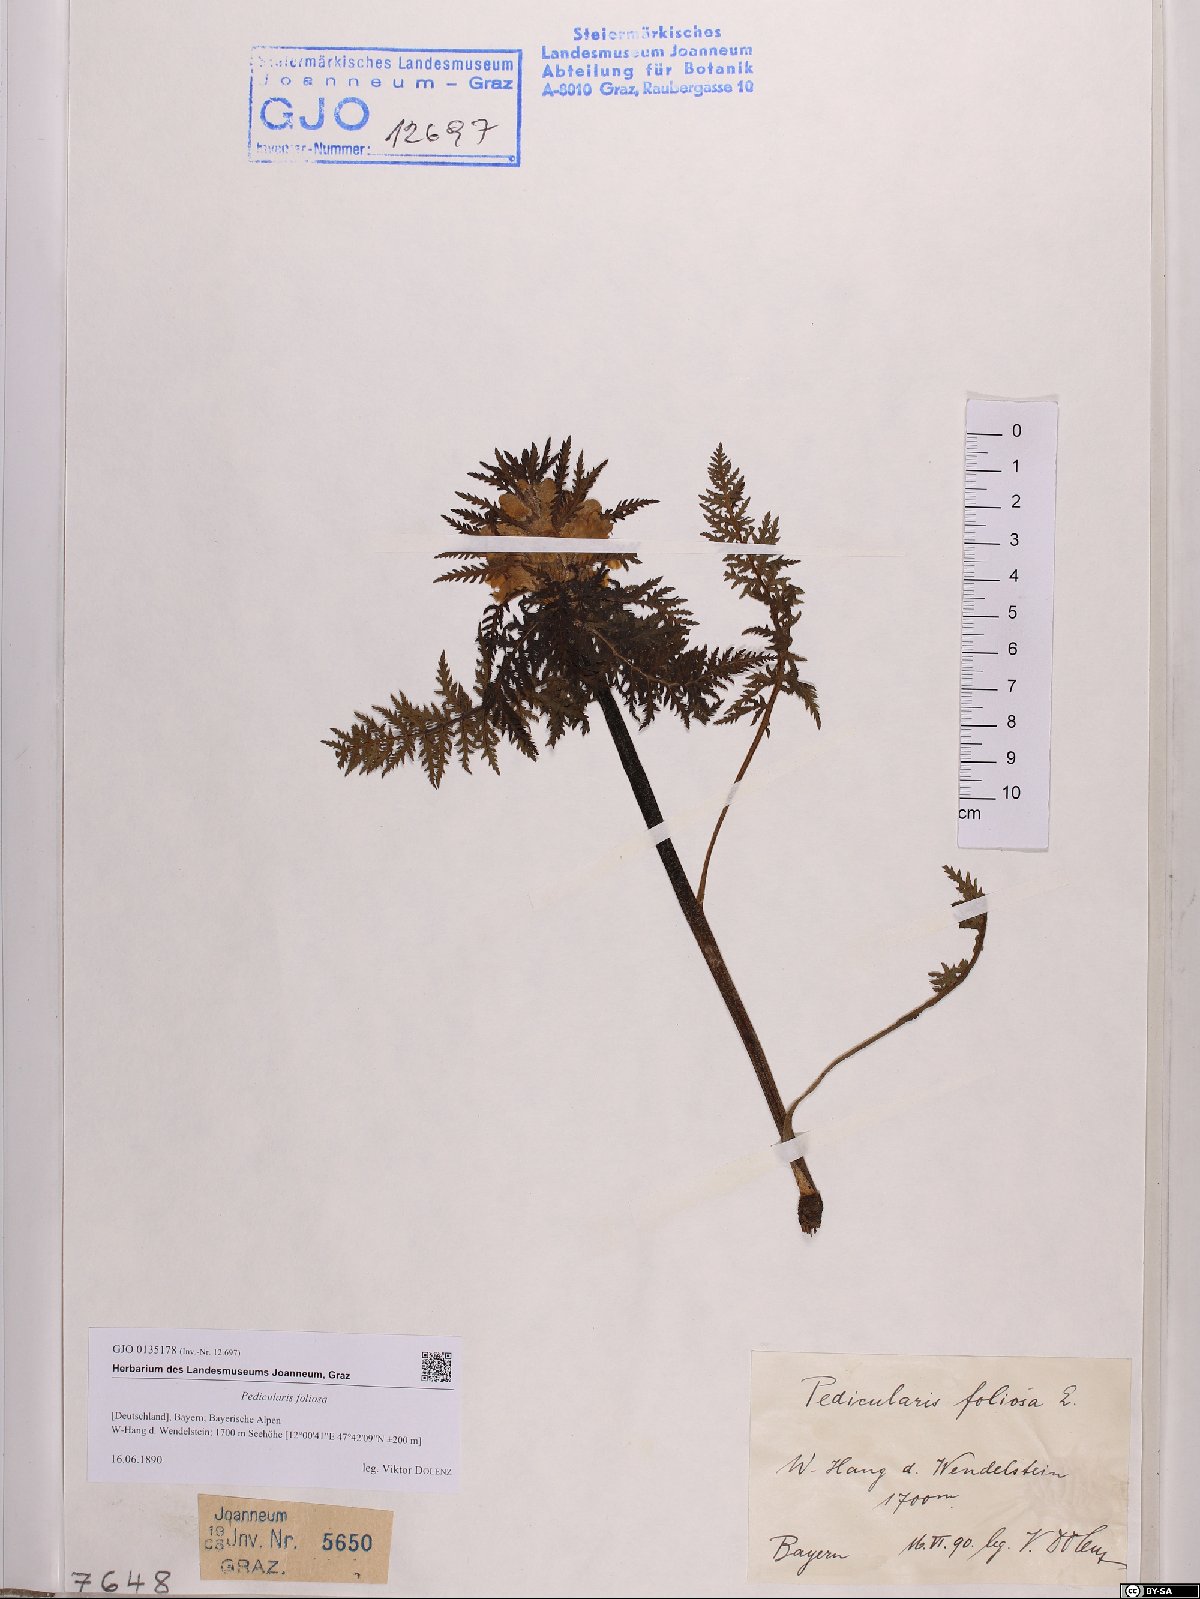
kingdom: Plantae
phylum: Tracheophyta
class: Magnoliopsida
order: Lamiales
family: Orobanchaceae
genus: Pedicularis
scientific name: Pedicularis foliosa
